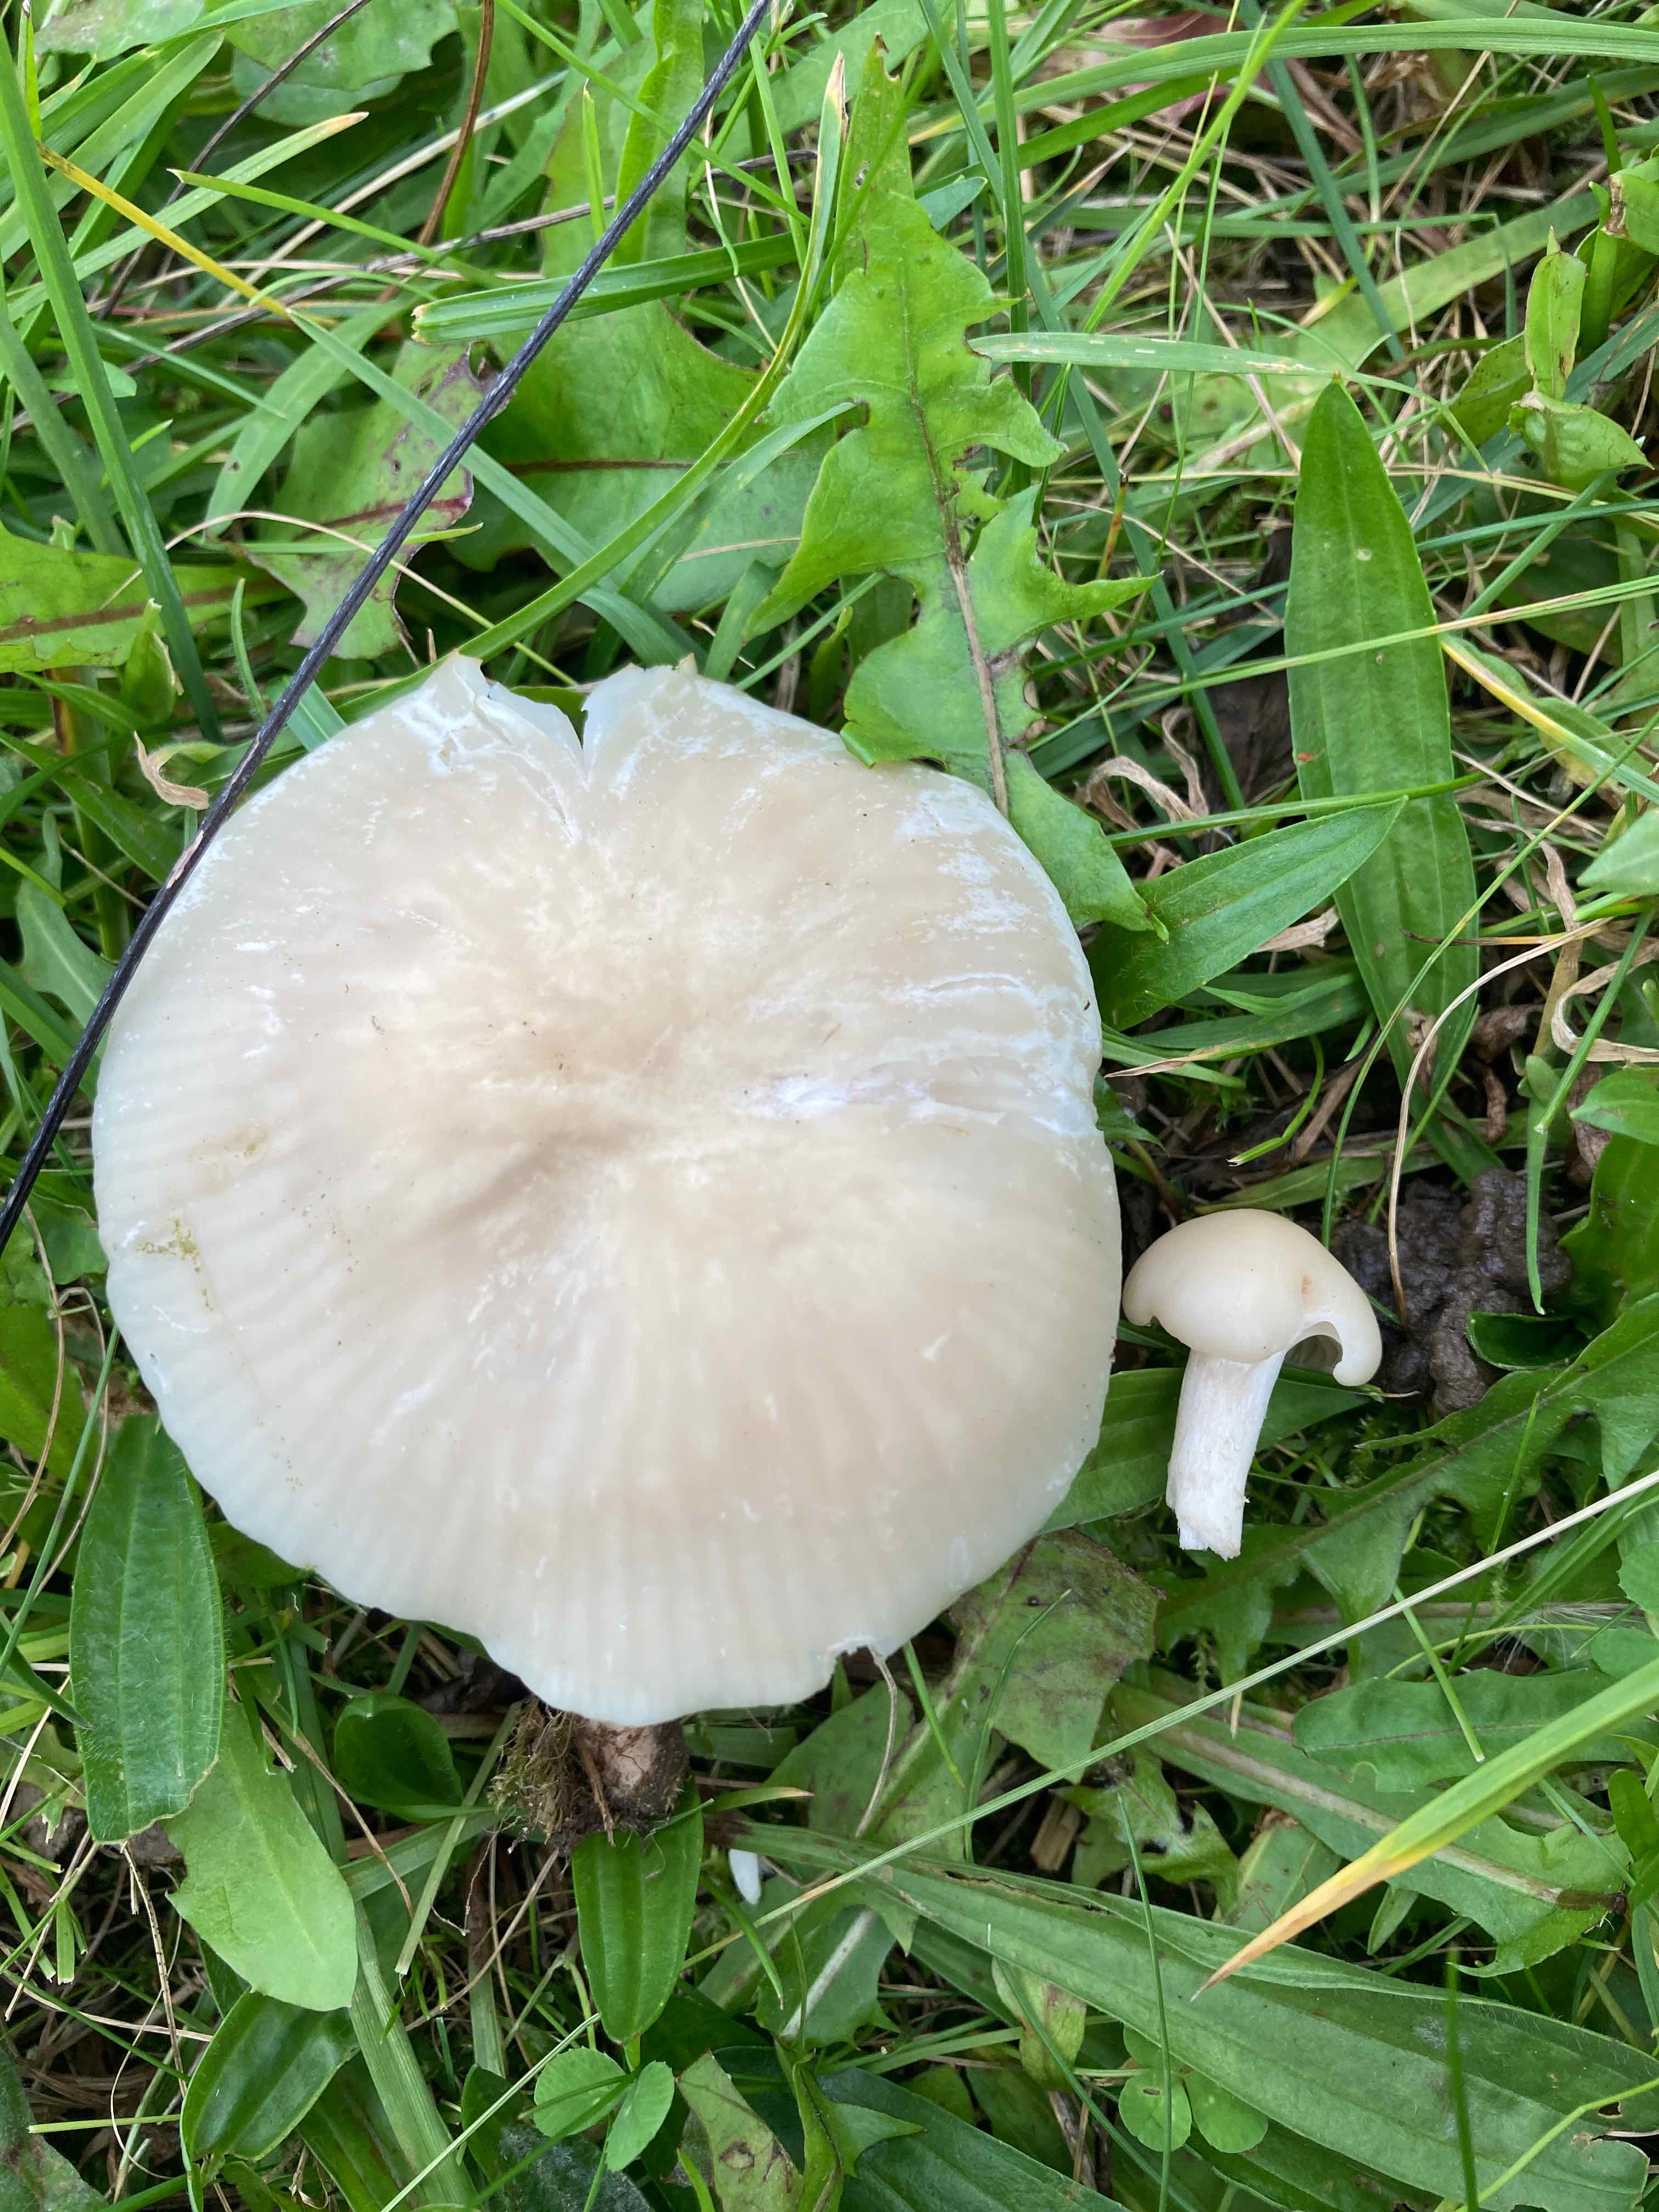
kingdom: Fungi
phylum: Basidiomycota
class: Agaricomycetes
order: Agaricales
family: Hygrophoraceae
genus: Cuphophyllus
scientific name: Cuphophyllus russocoriaceus
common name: ruslæder-vokshat
